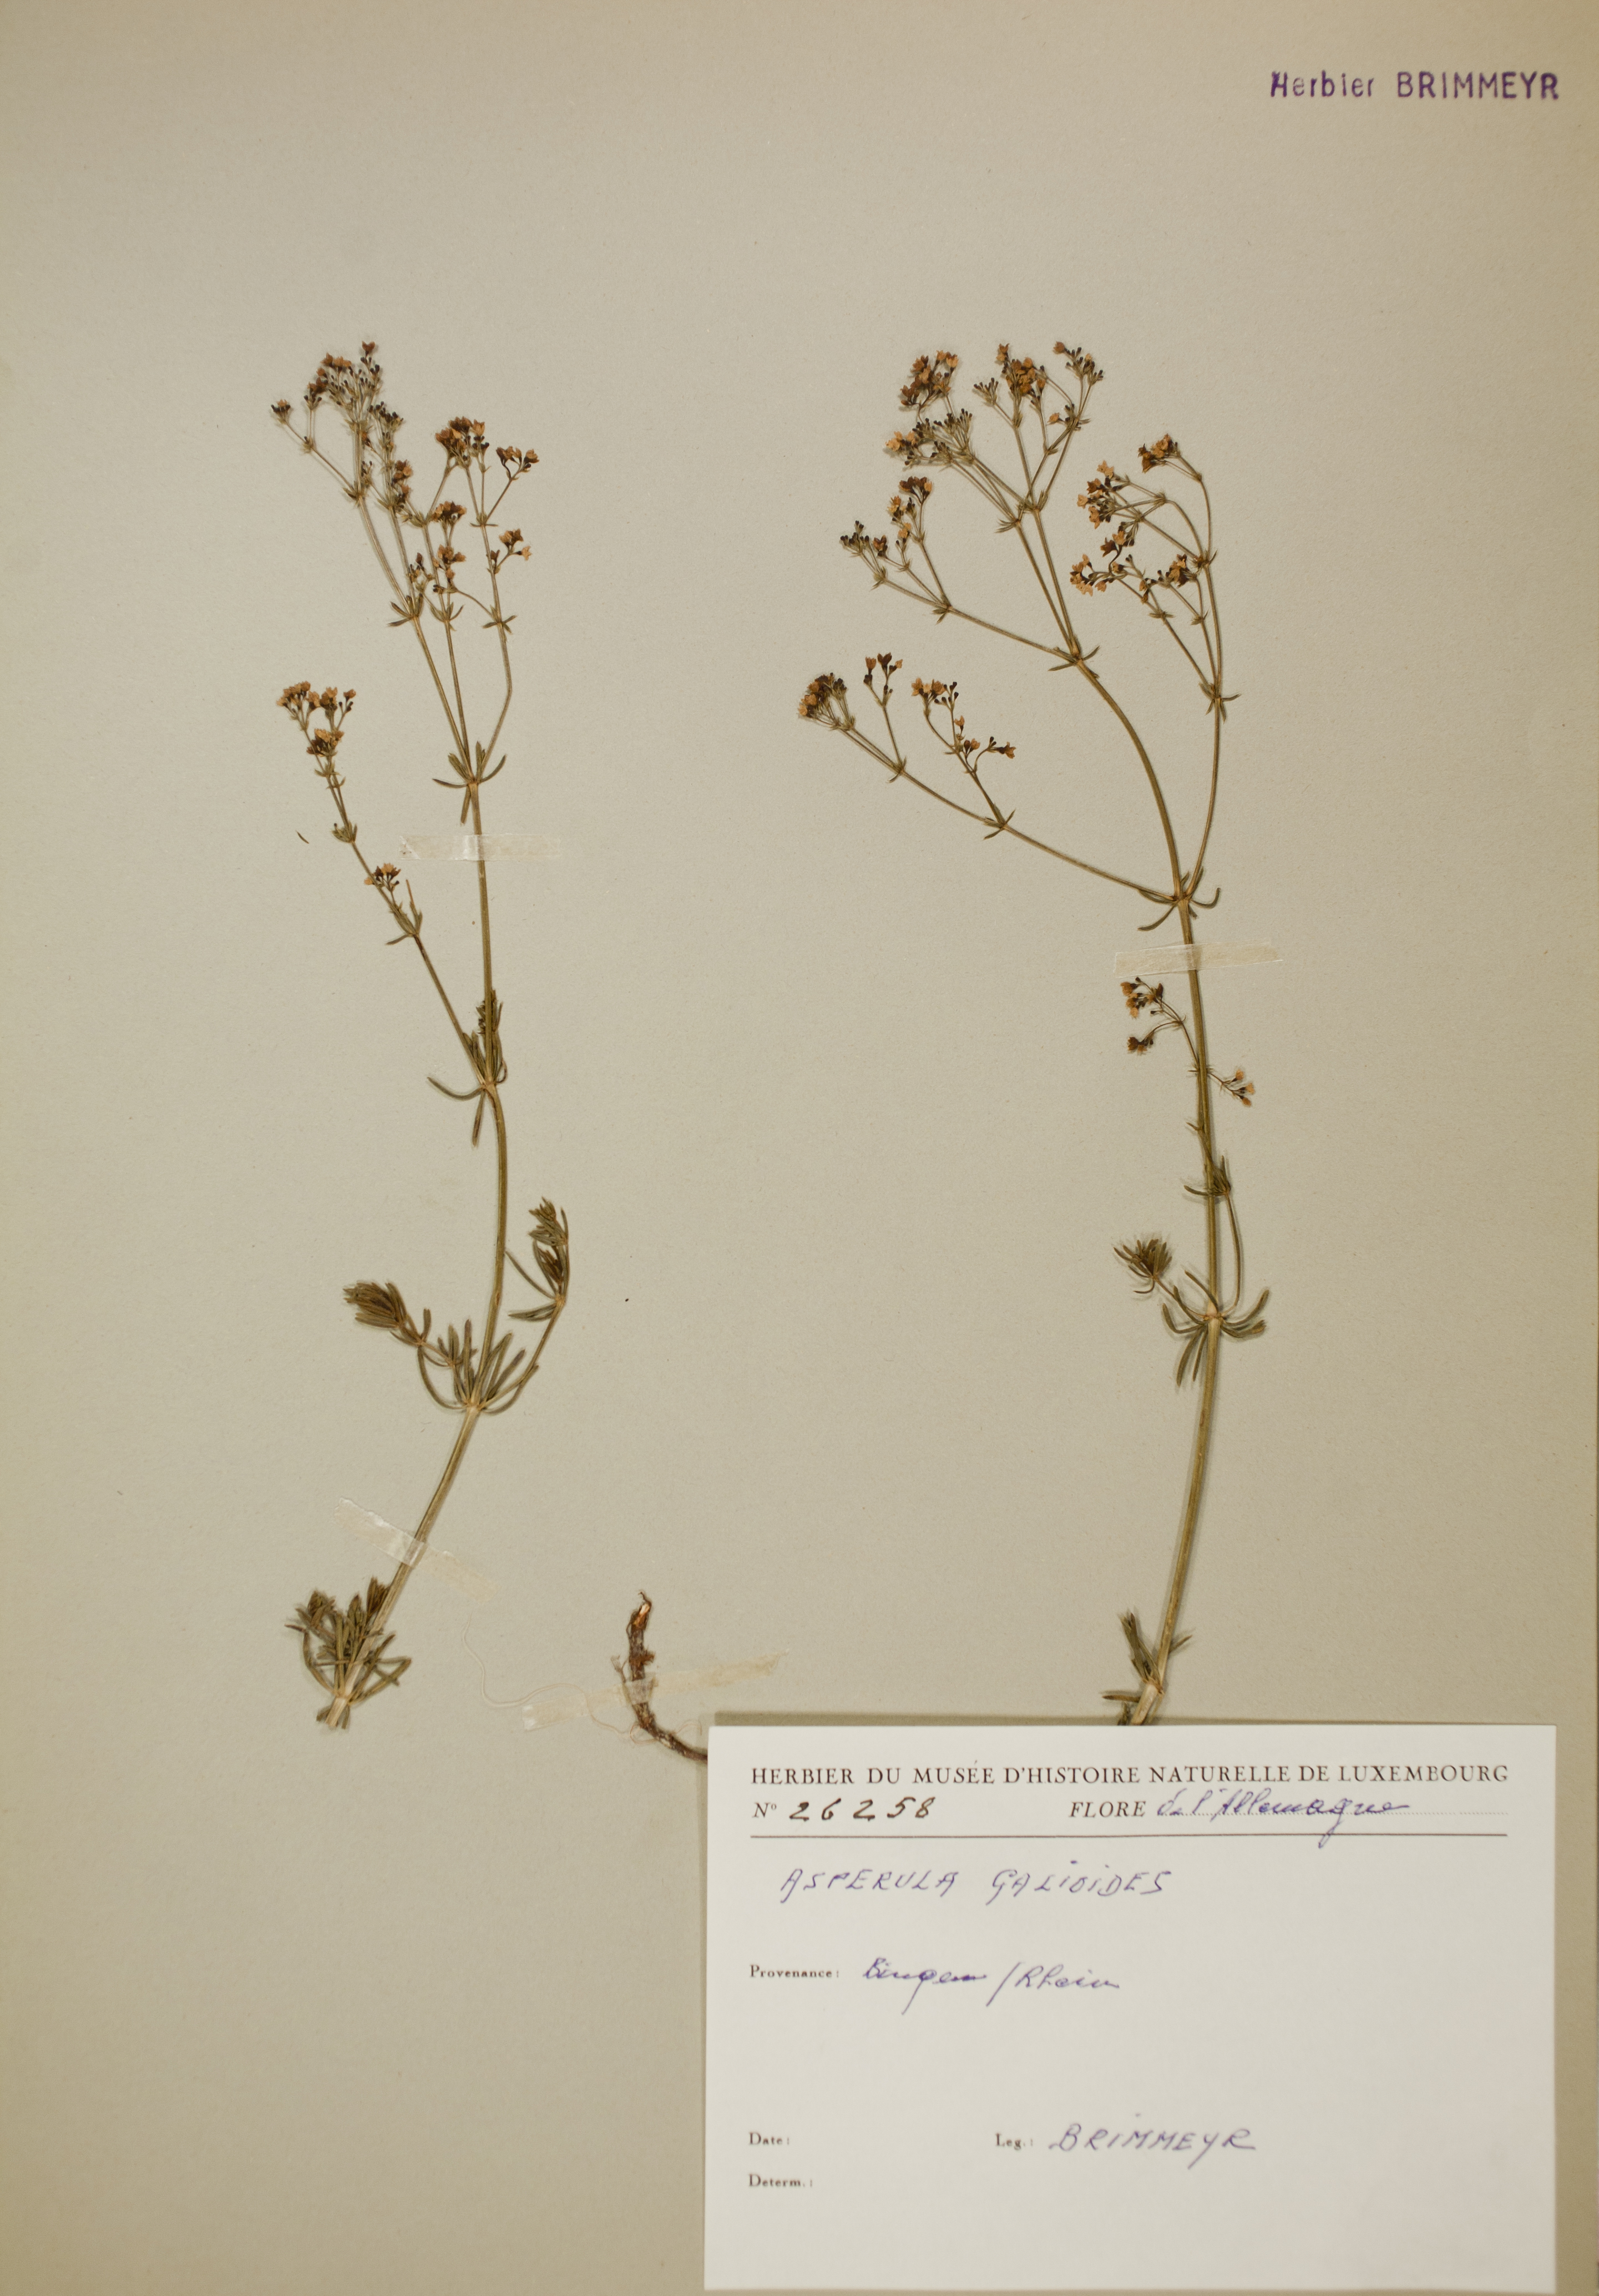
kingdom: Plantae
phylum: Tracheophyta
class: Magnoliopsida
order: Gentianales
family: Rubiaceae
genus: Galium
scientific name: Galium glaucum
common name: Waxy bedstraw
